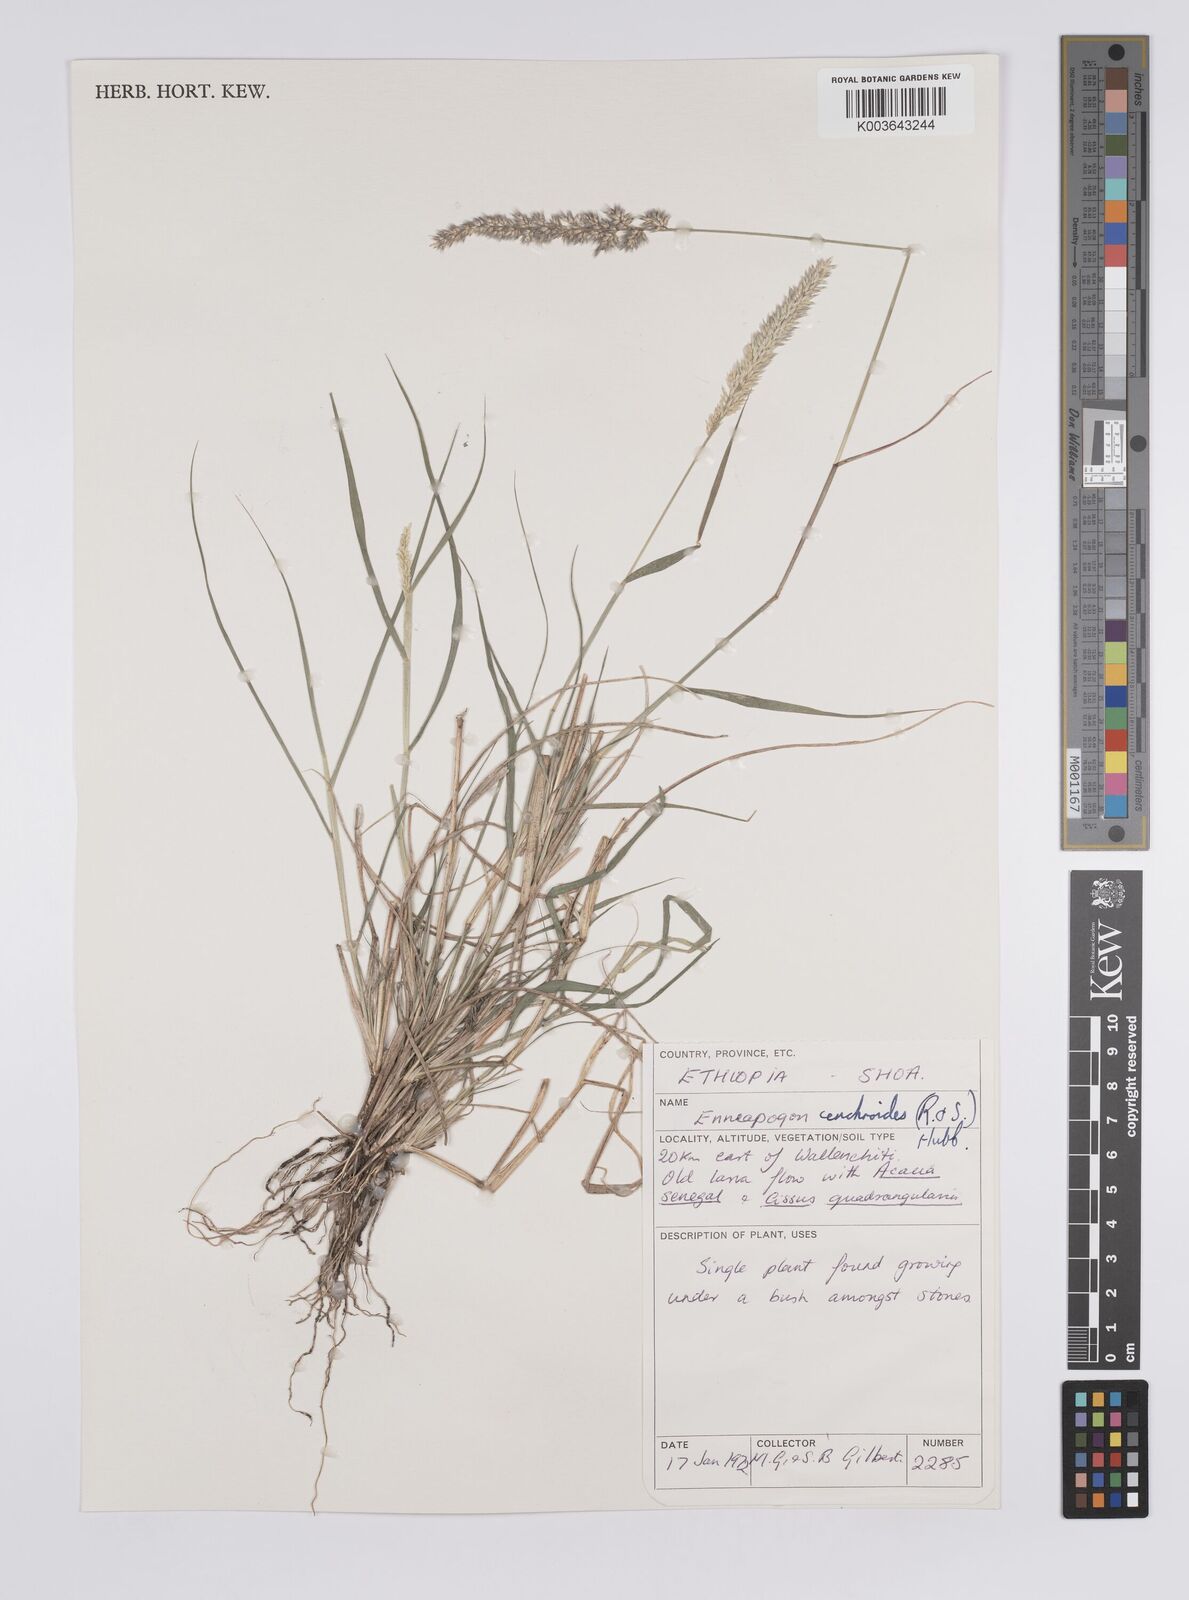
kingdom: Plantae
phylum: Tracheophyta
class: Liliopsida
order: Poales
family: Poaceae
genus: Enneapogon
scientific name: Enneapogon cenchroides
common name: Soft feather pappusgrass
